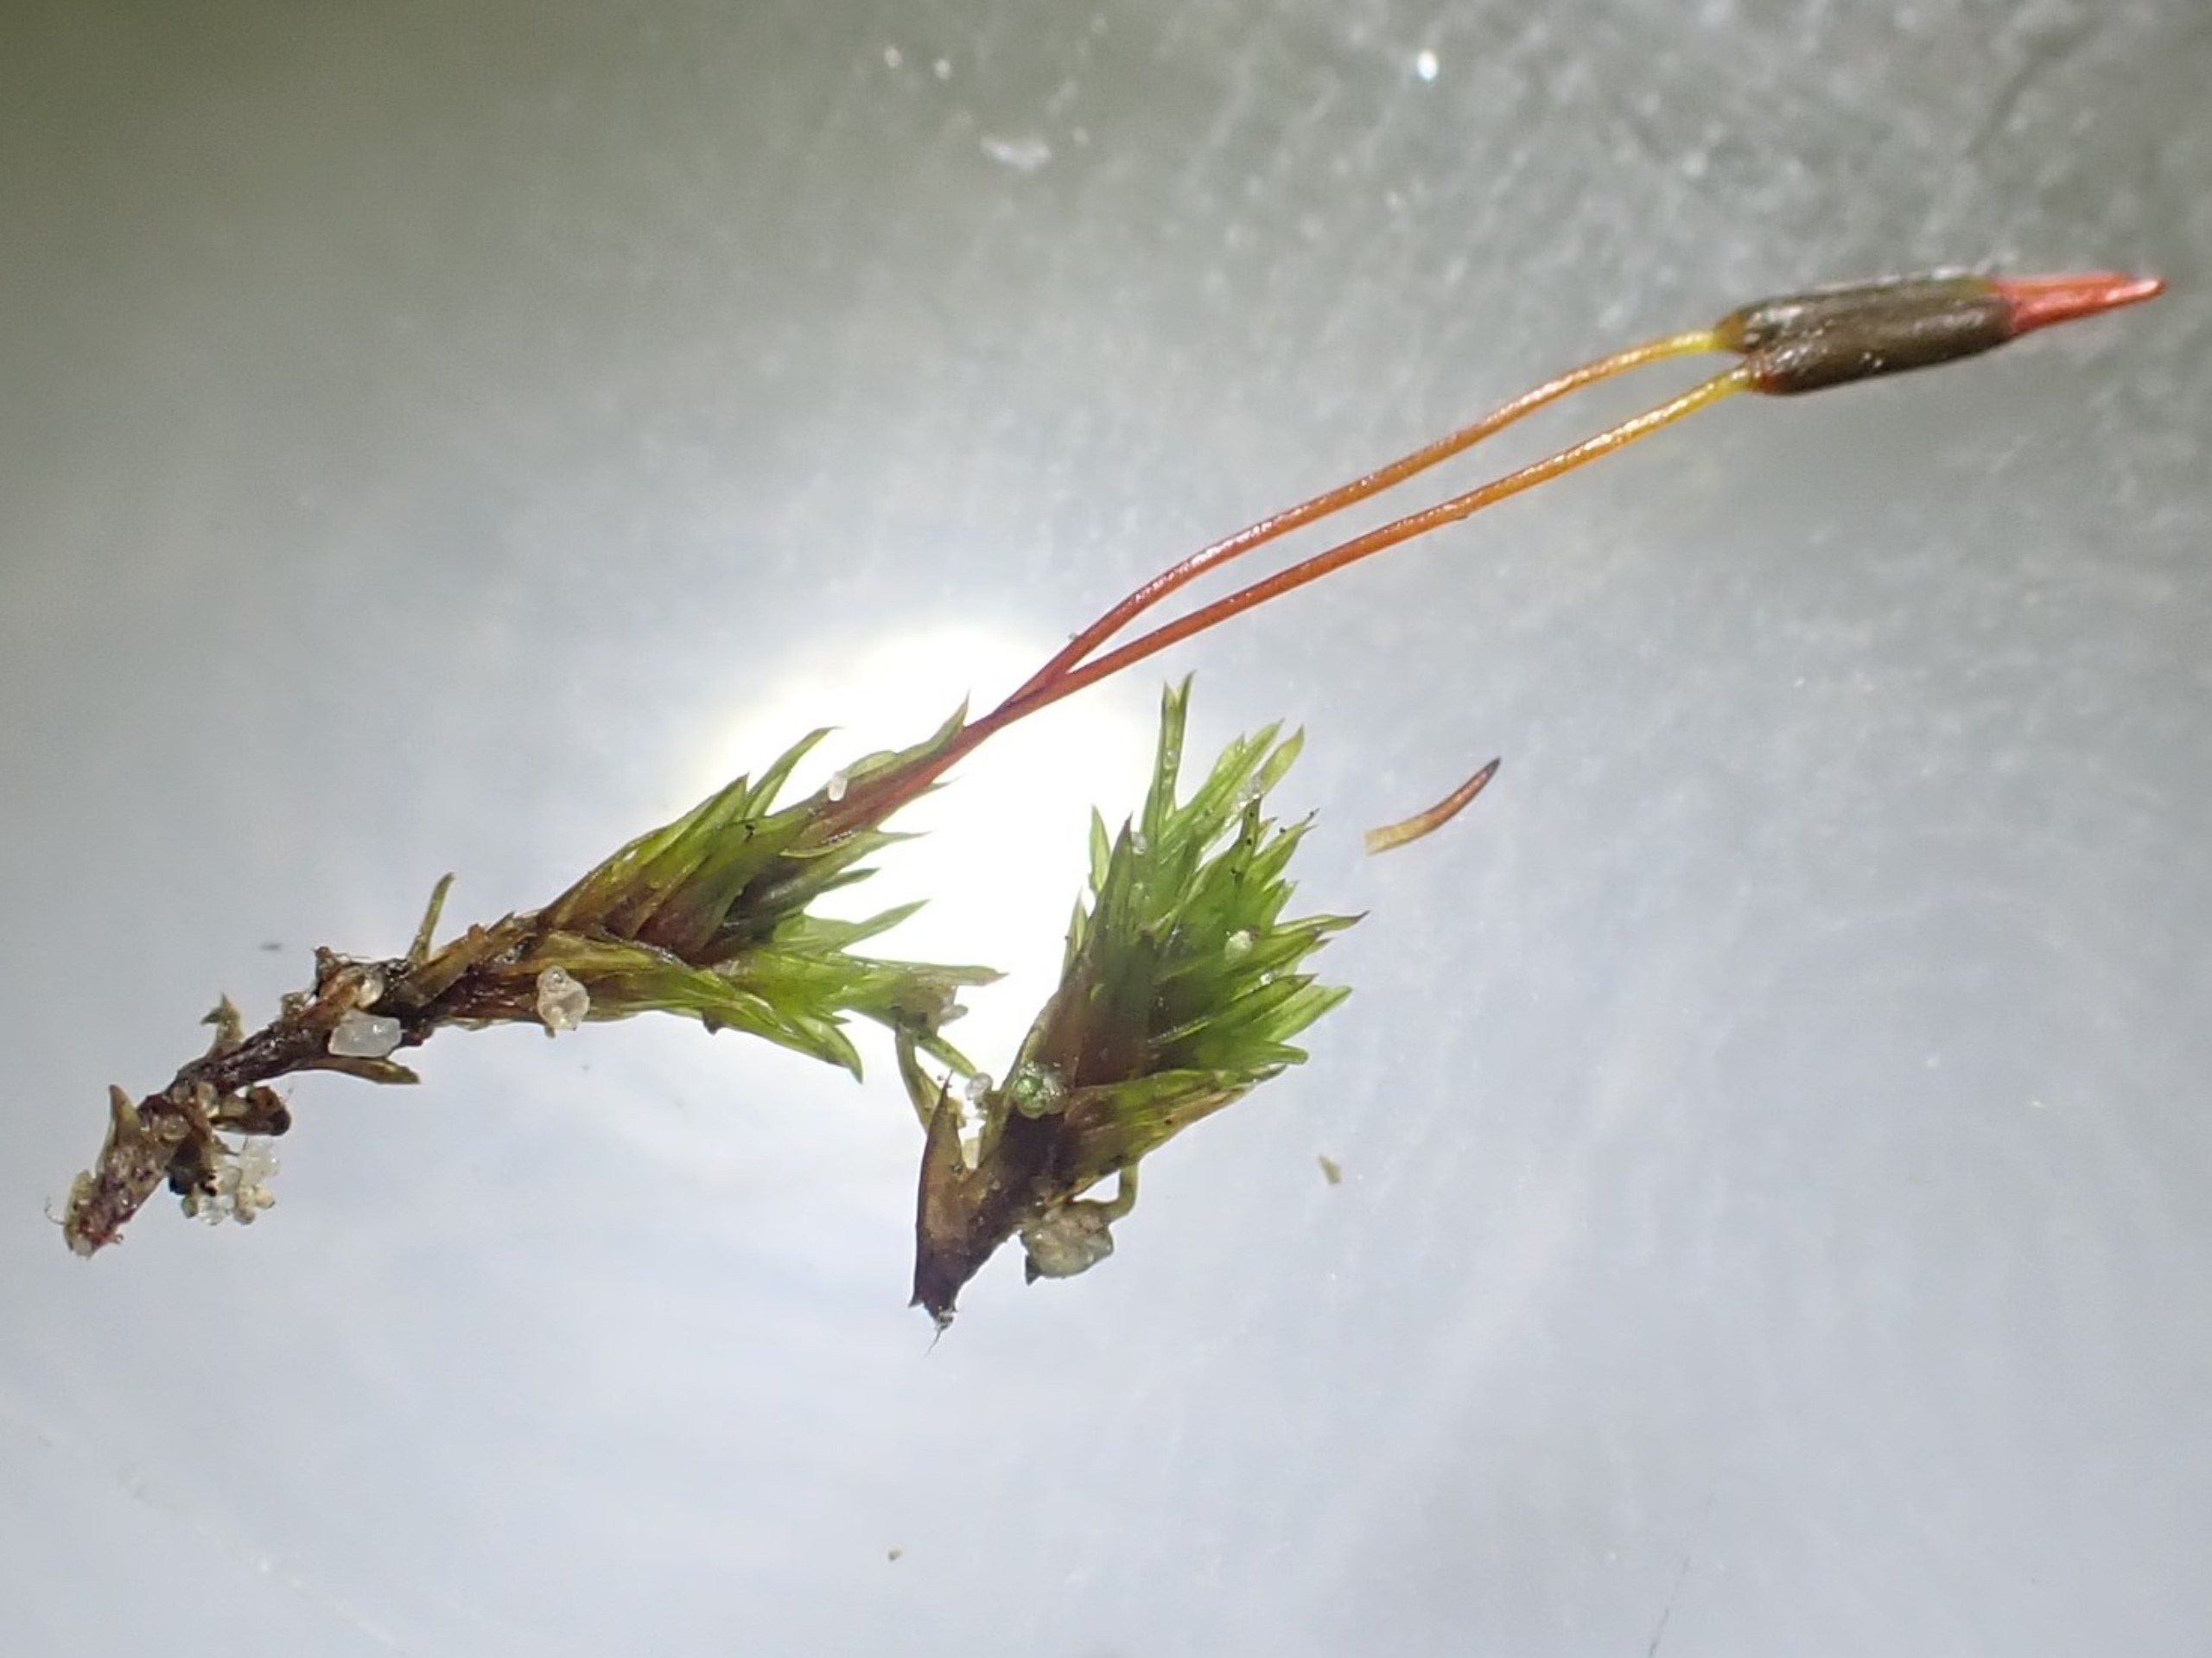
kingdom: Plantae
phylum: Bryophyta
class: Bryopsida
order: Pottiales
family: Pottiaceae
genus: Barbula
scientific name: Barbula unguiculata
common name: Almindelig skægtand
